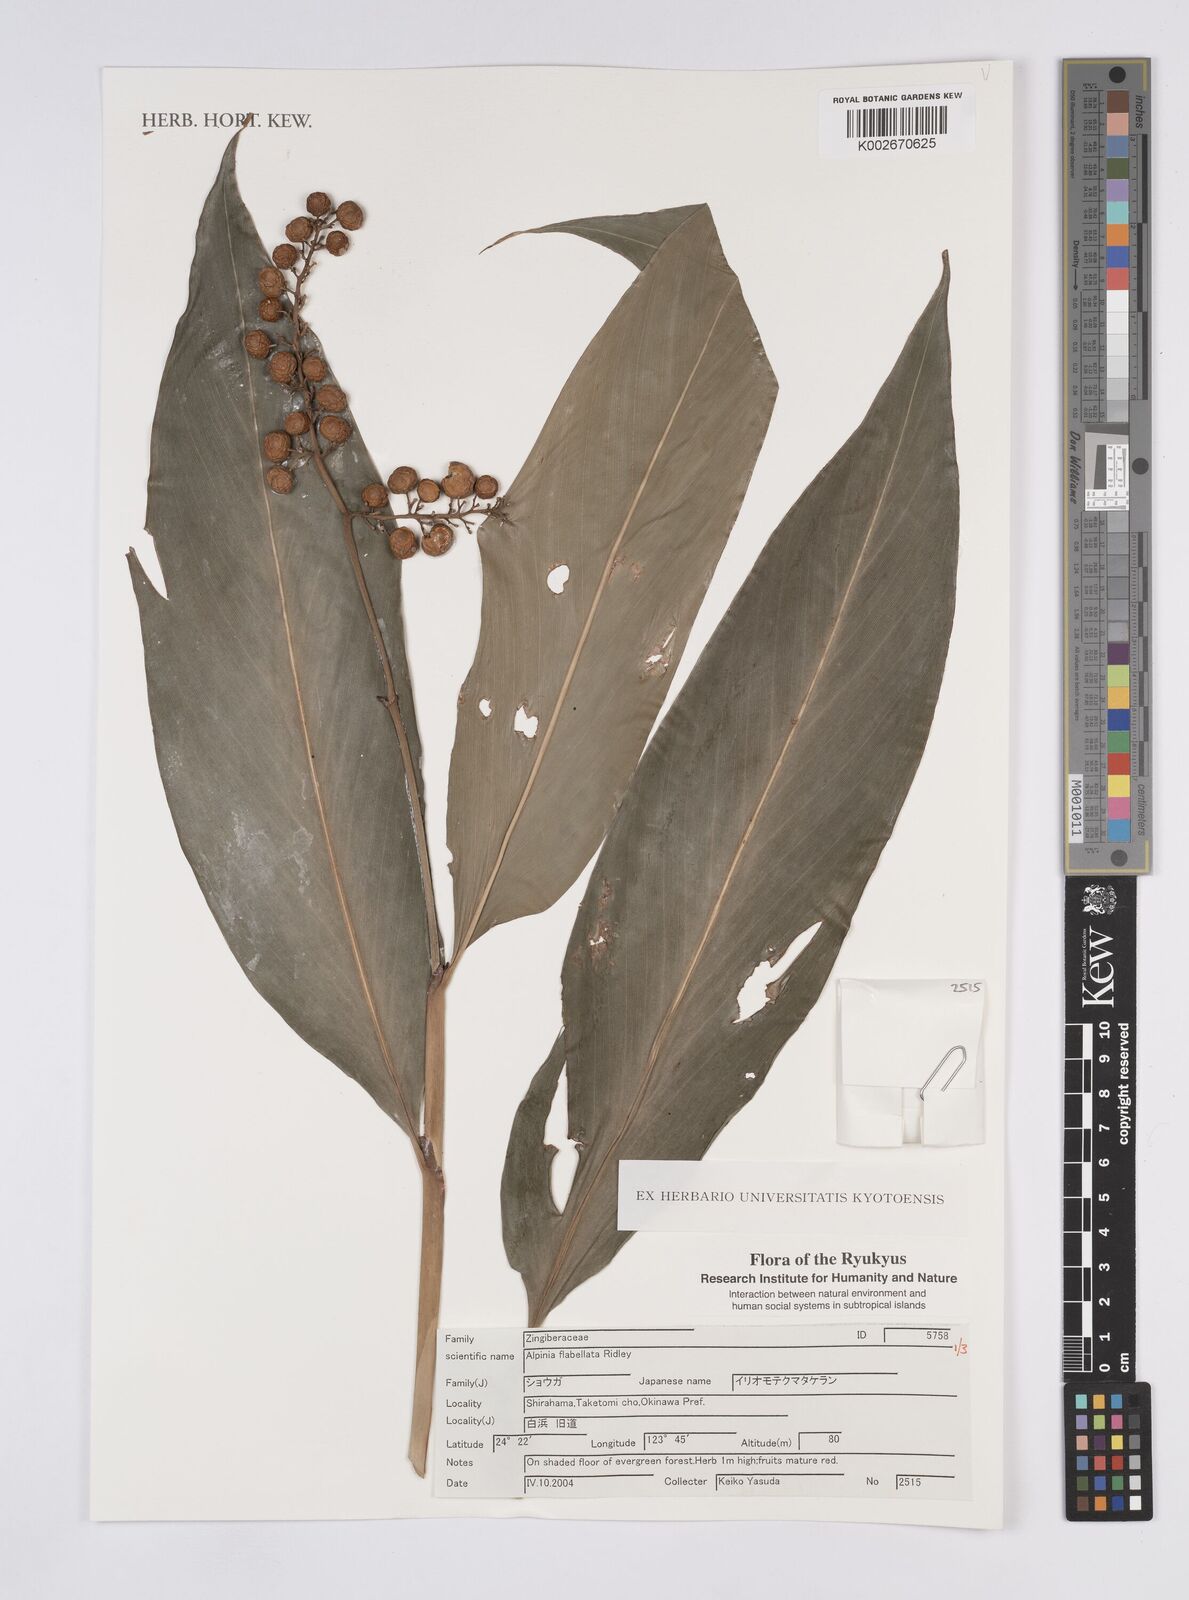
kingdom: Plantae
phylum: Tracheophyta
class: Liliopsida
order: Zingiberales
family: Zingiberaceae
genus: Alpinia
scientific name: Alpinia flabellata
